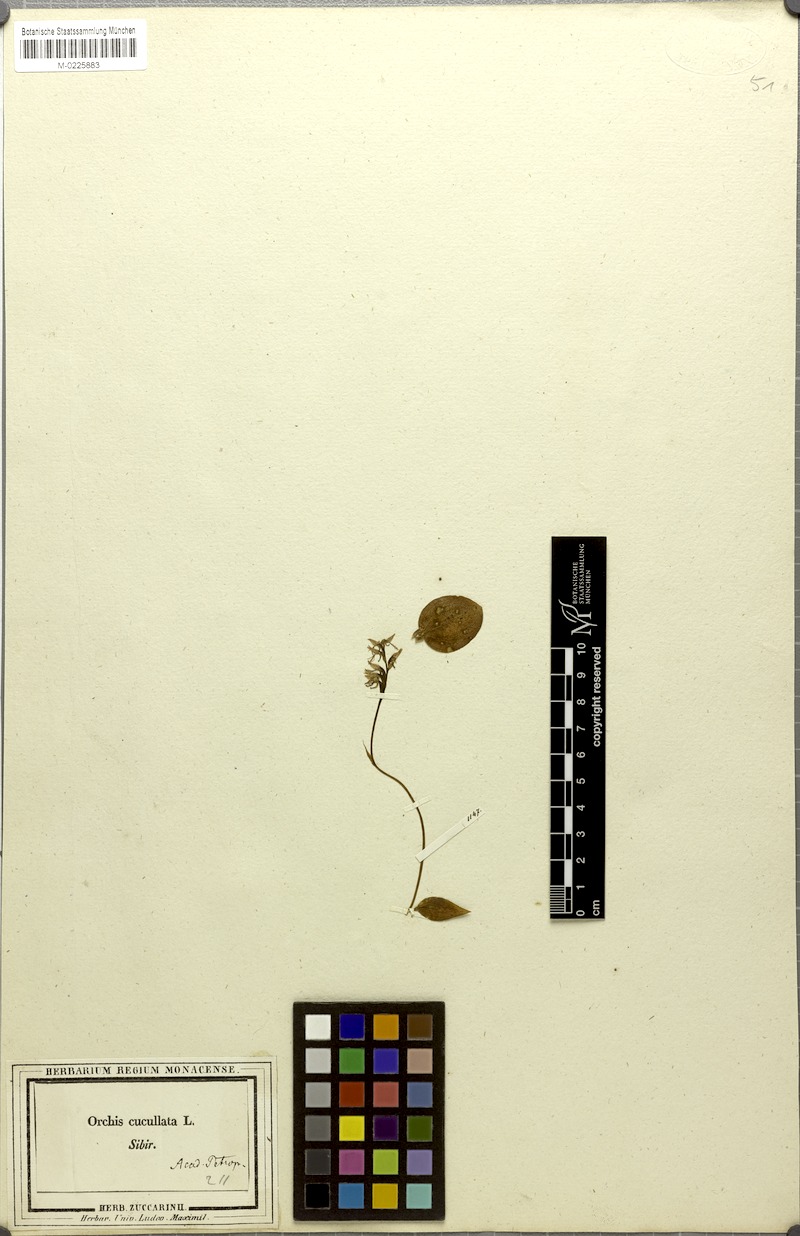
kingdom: Plantae
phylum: Tracheophyta
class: Liliopsida
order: Asparagales
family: Orchidaceae
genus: Hemipilia
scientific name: Hemipilia cucullata
